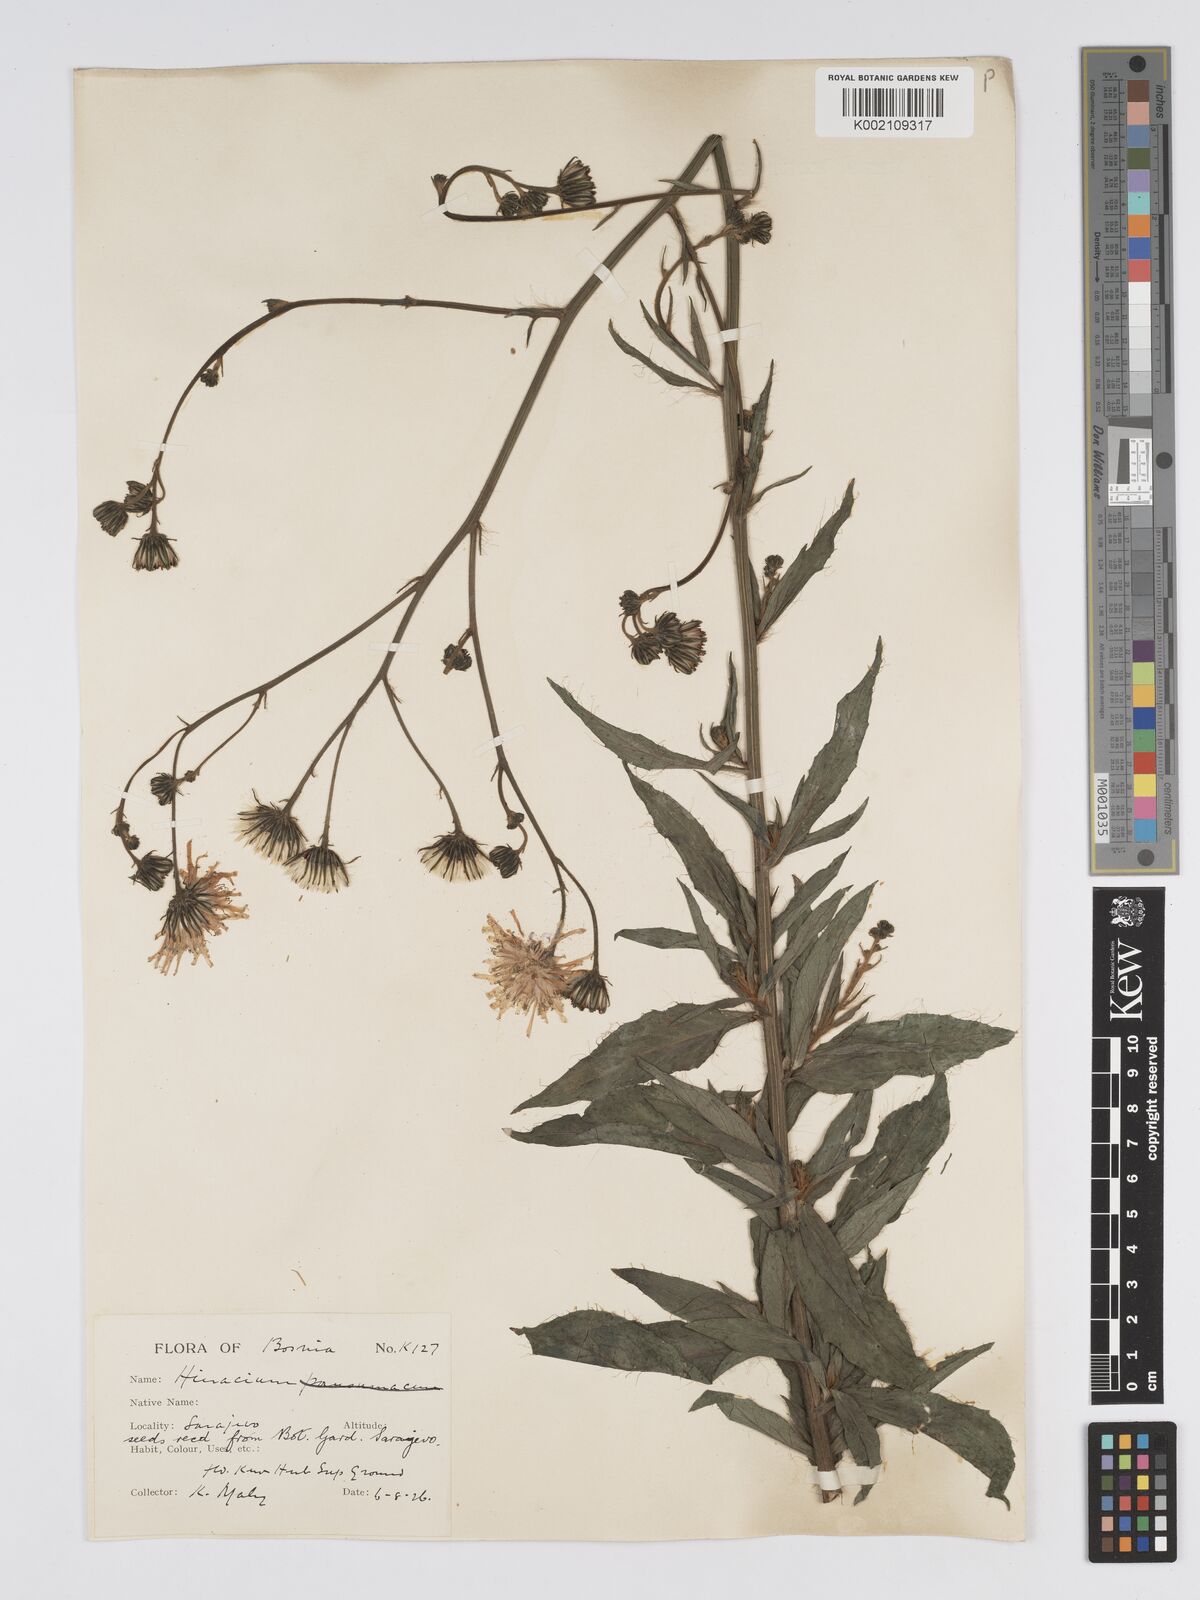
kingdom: Plantae
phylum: Tracheophyta
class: Magnoliopsida
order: Asterales
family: Asteraceae
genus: Hieracium
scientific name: Hieracium tommasinianum
